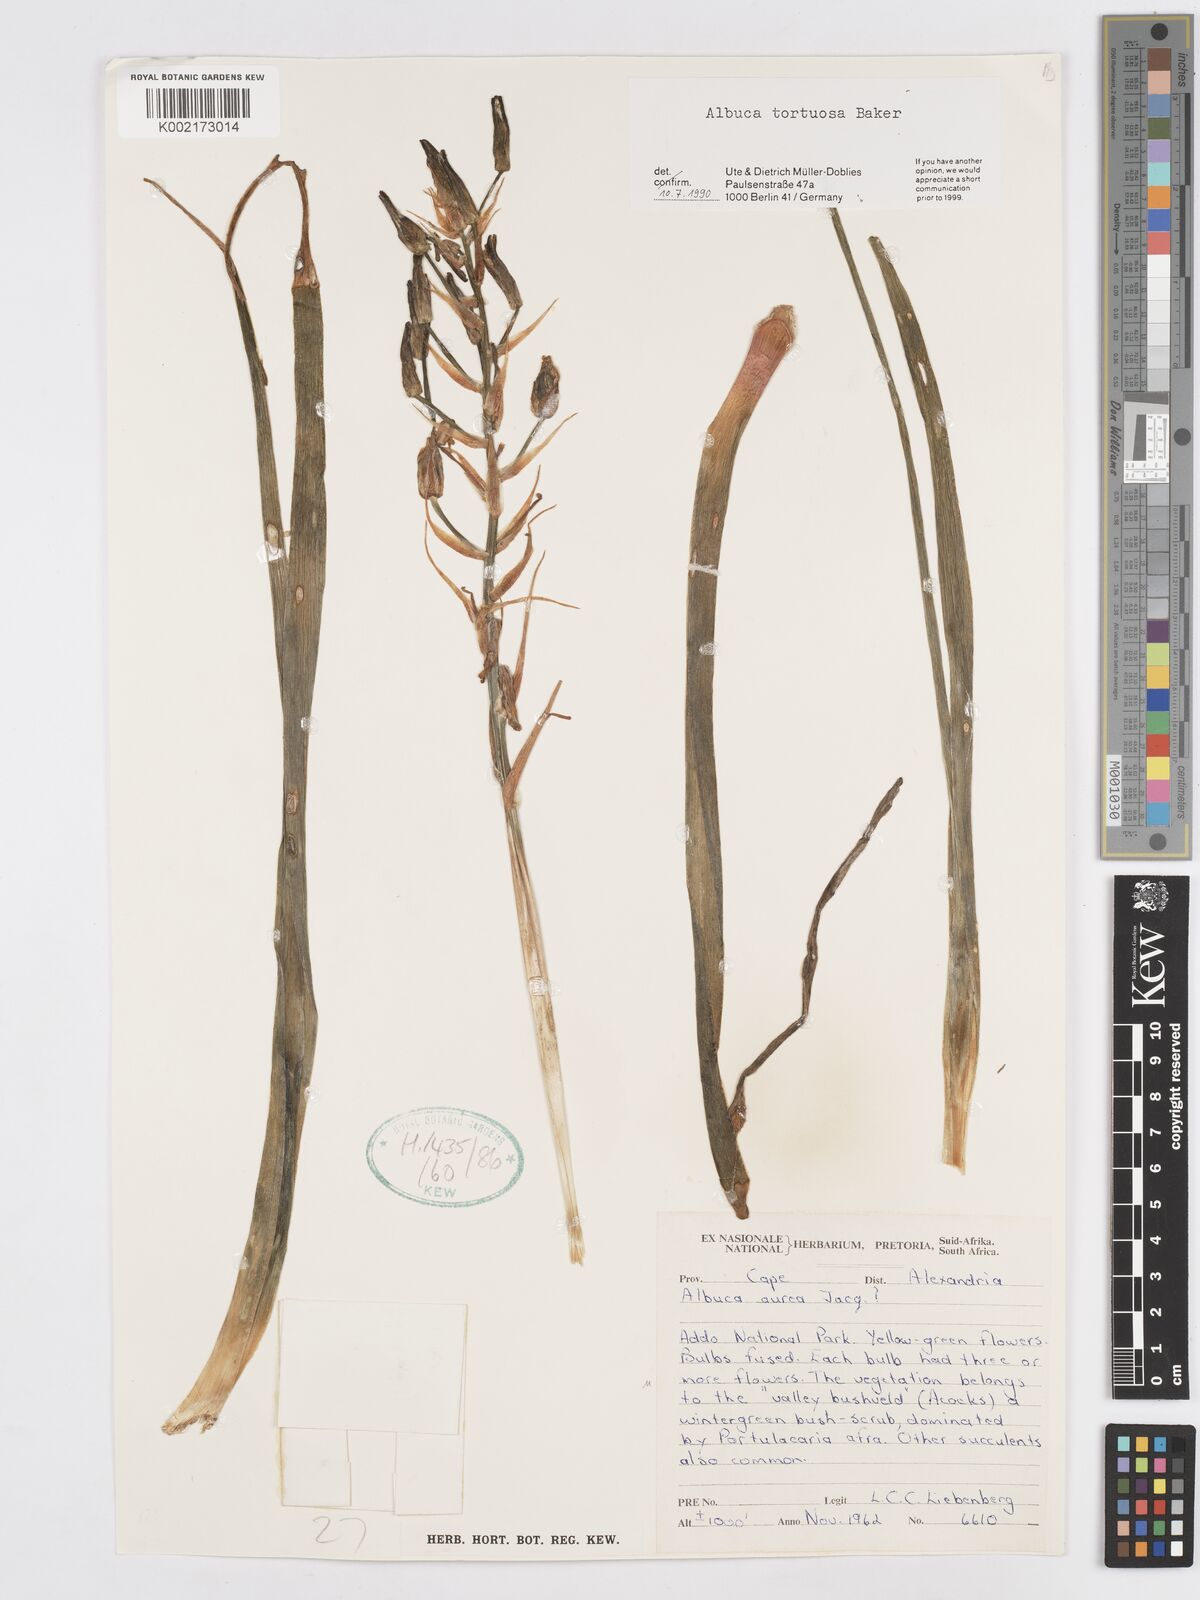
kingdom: Plantae
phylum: Tracheophyta
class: Liliopsida
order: Asparagales
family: Asparagaceae
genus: Albuca
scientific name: Albuca tortuosa
